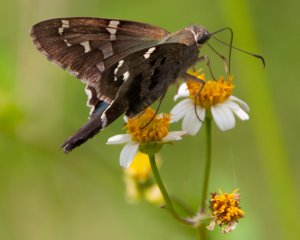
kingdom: Animalia
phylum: Arthropoda
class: Insecta
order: Lepidoptera
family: Hesperiidae
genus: Urbanus
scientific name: Urbanus proteus
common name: Long-tailed Skipper
